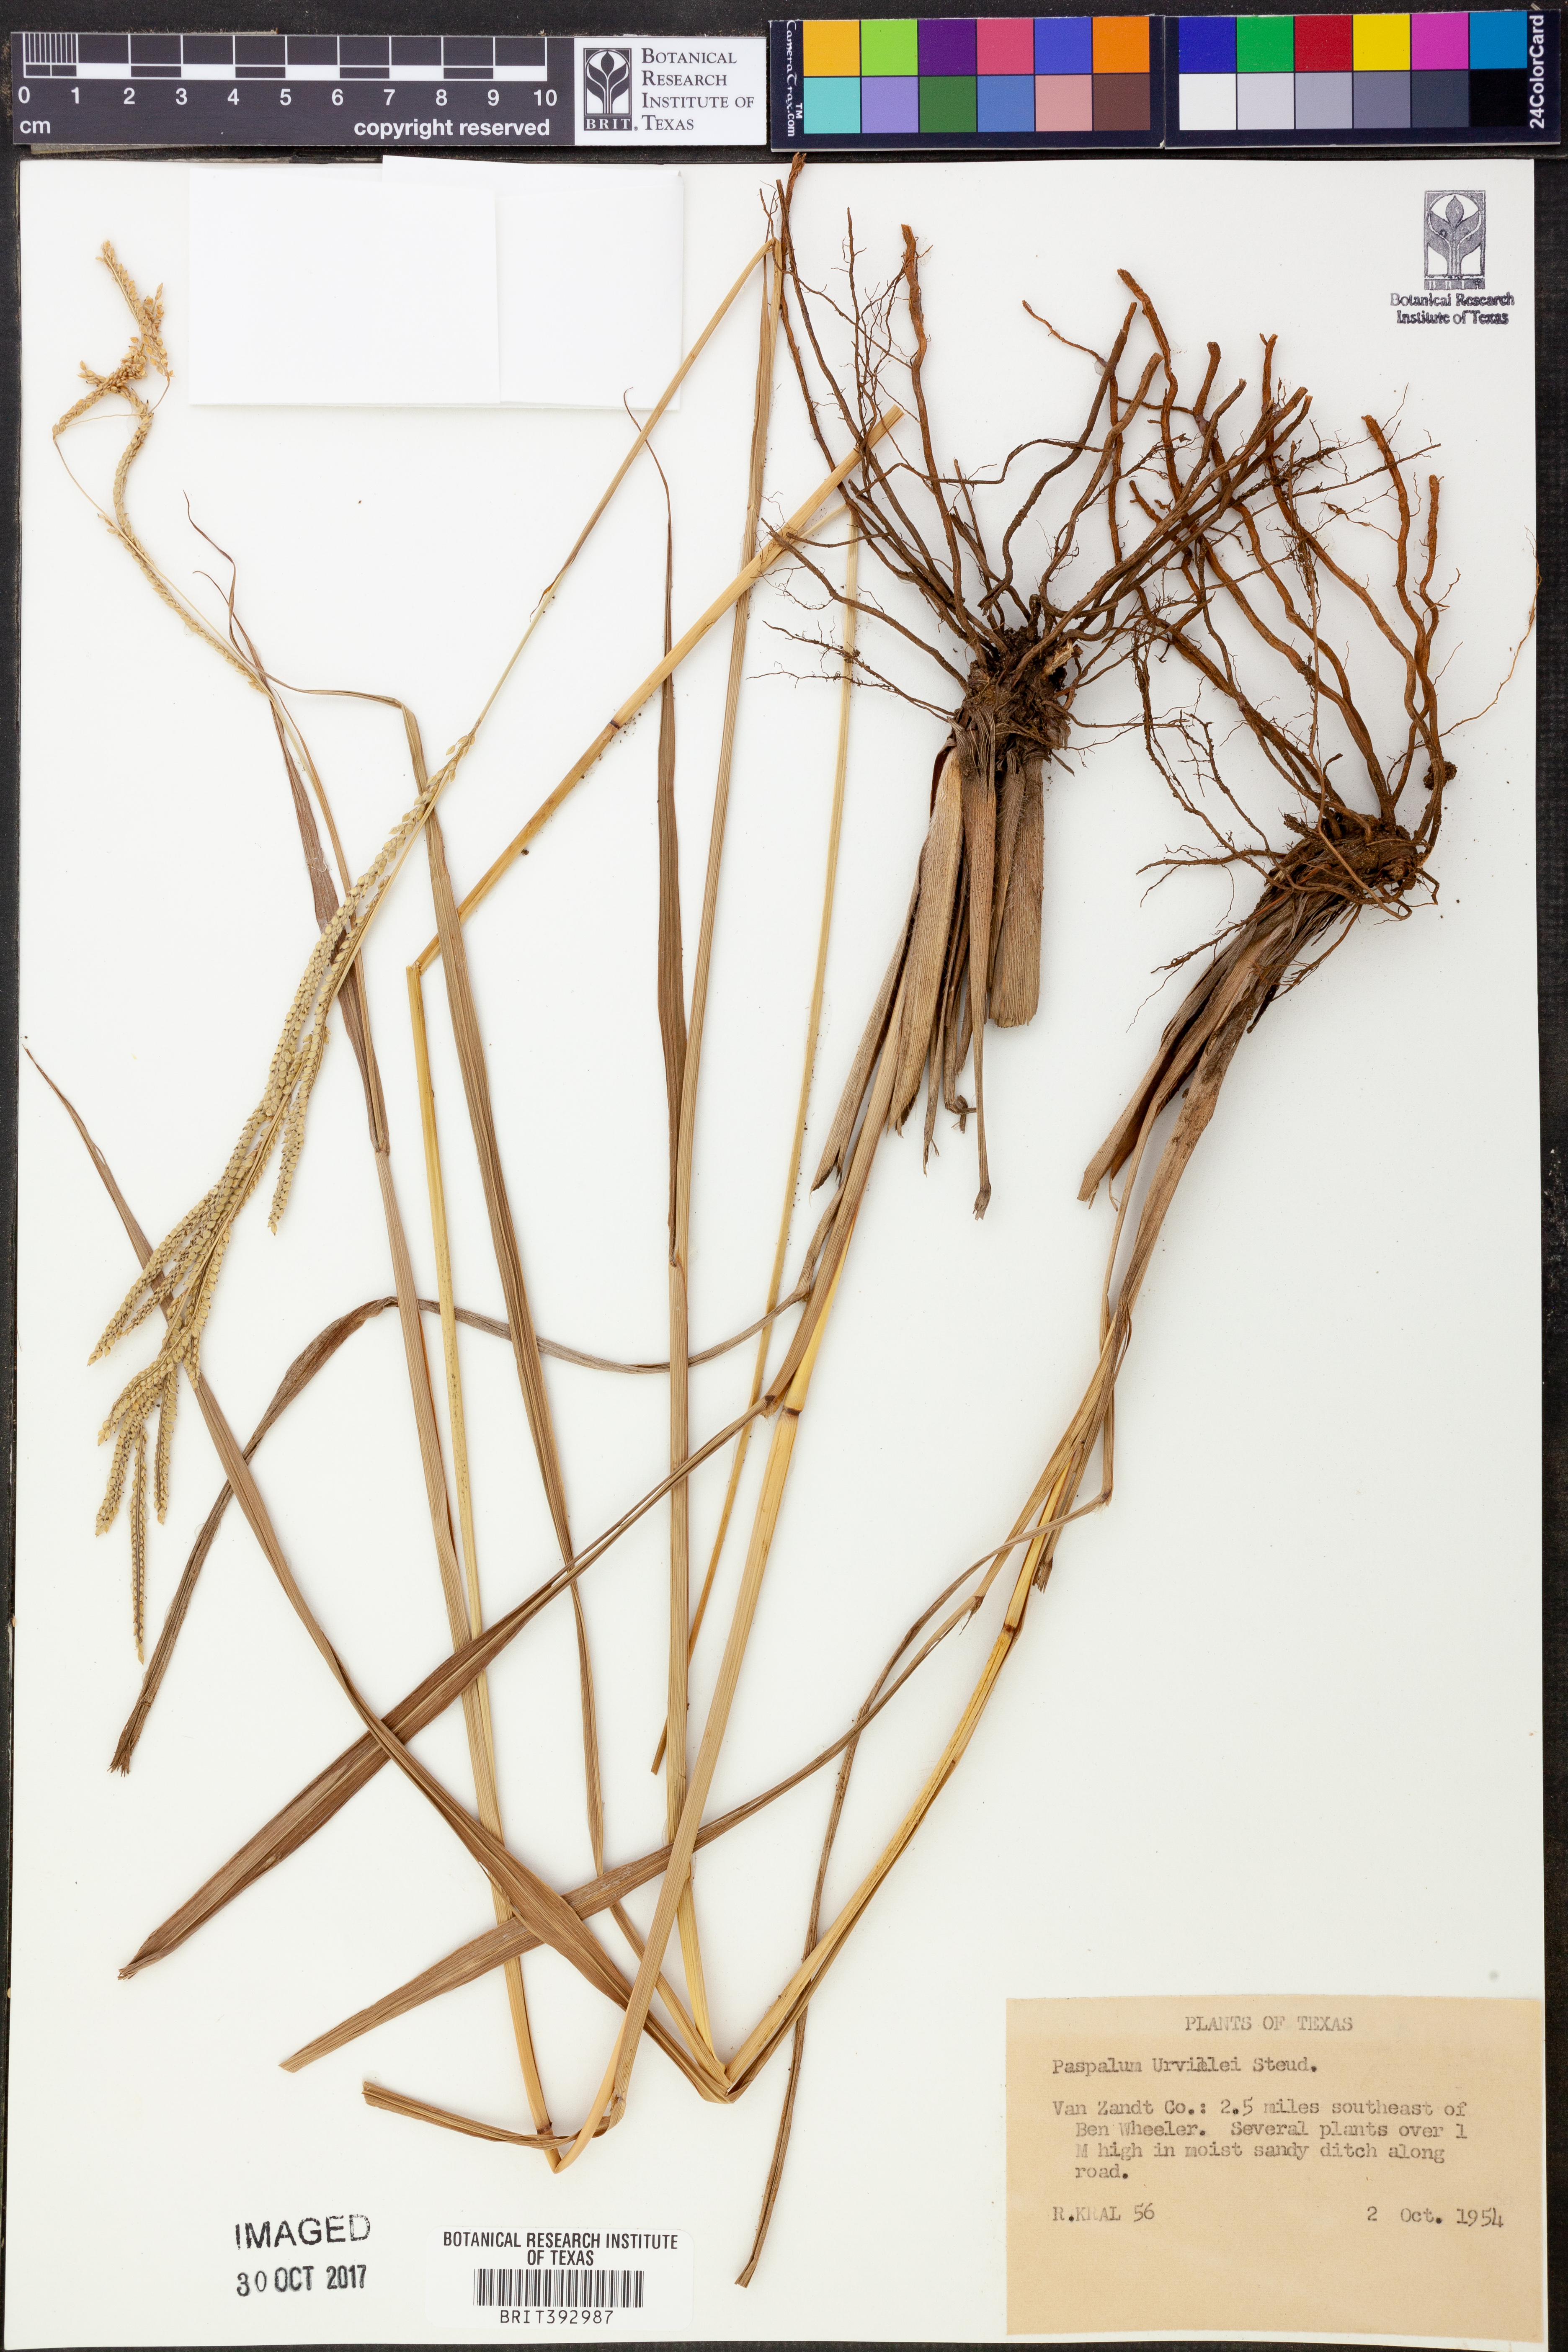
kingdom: Plantae
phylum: Tracheophyta
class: Liliopsida
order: Poales
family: Poaceae
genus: Paspalum
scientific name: Paspalum urvillei
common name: Vasey's grass
